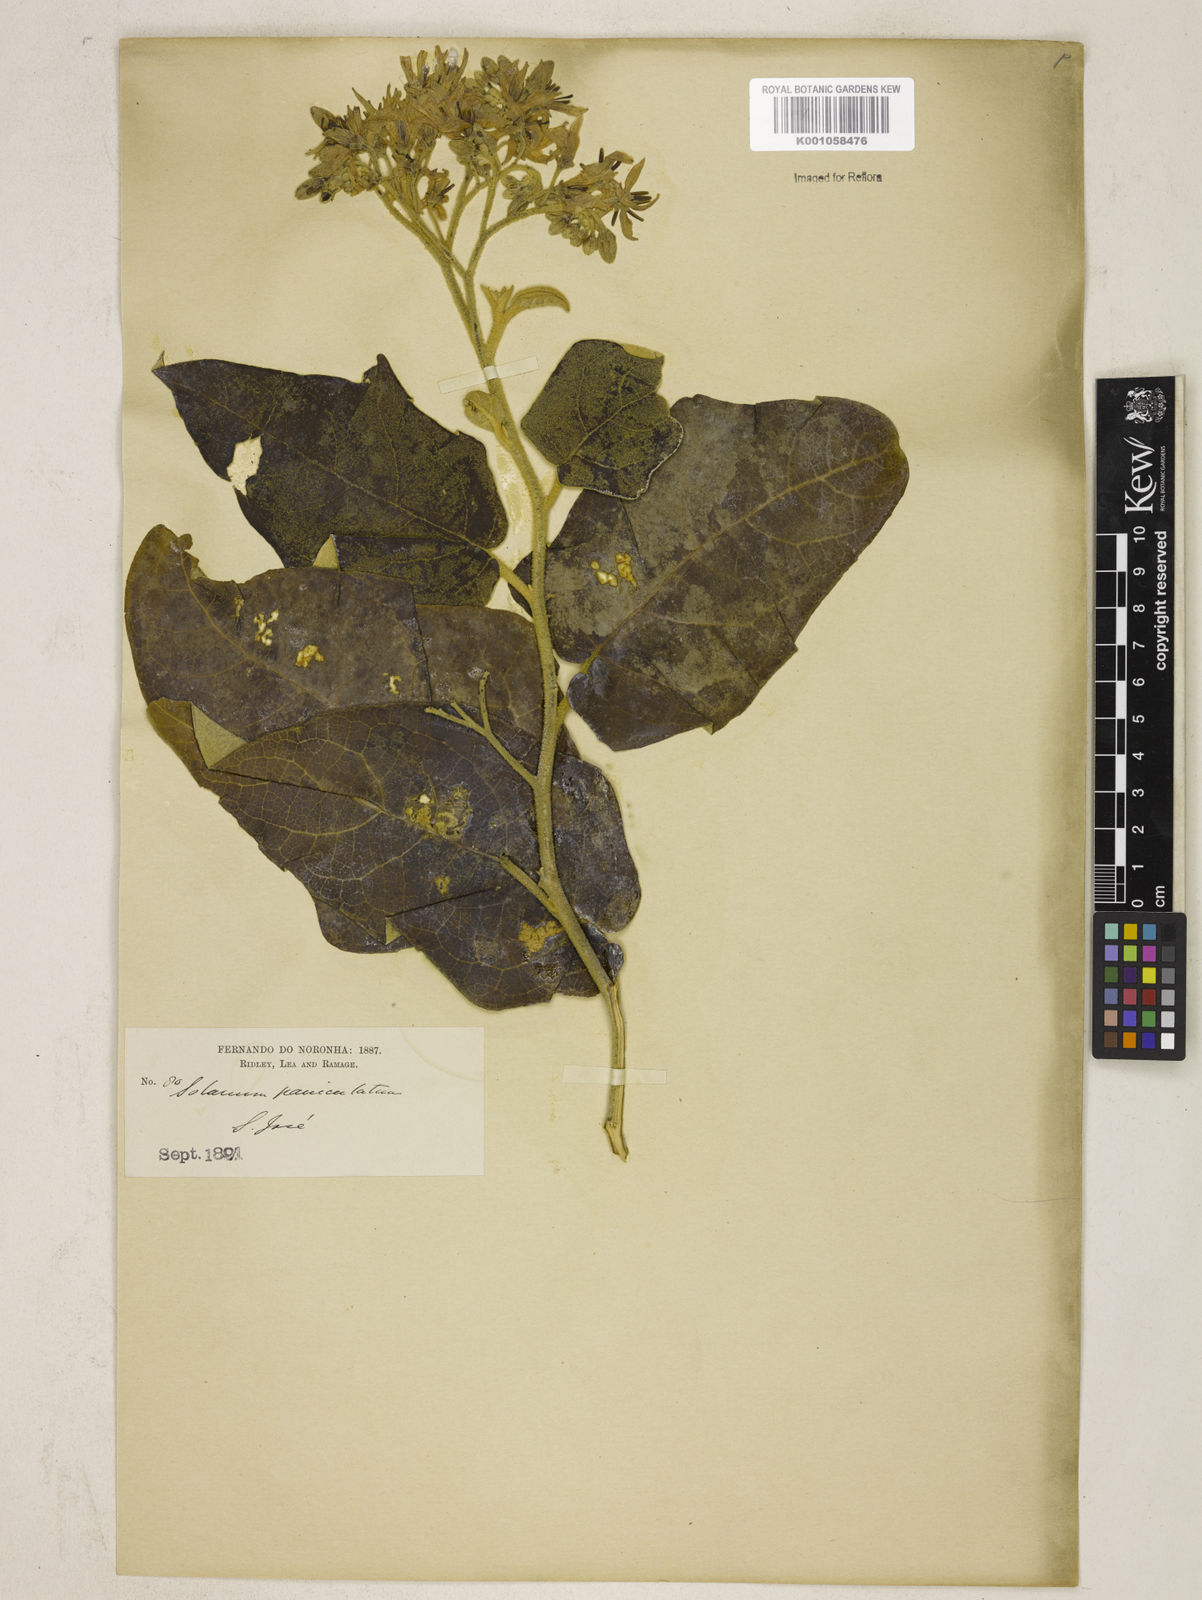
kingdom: Plantae
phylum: Tracheophyta
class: Magnoliopsida
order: Solanales
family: Solanaceae
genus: Solanum
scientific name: Solanum paniculatum
